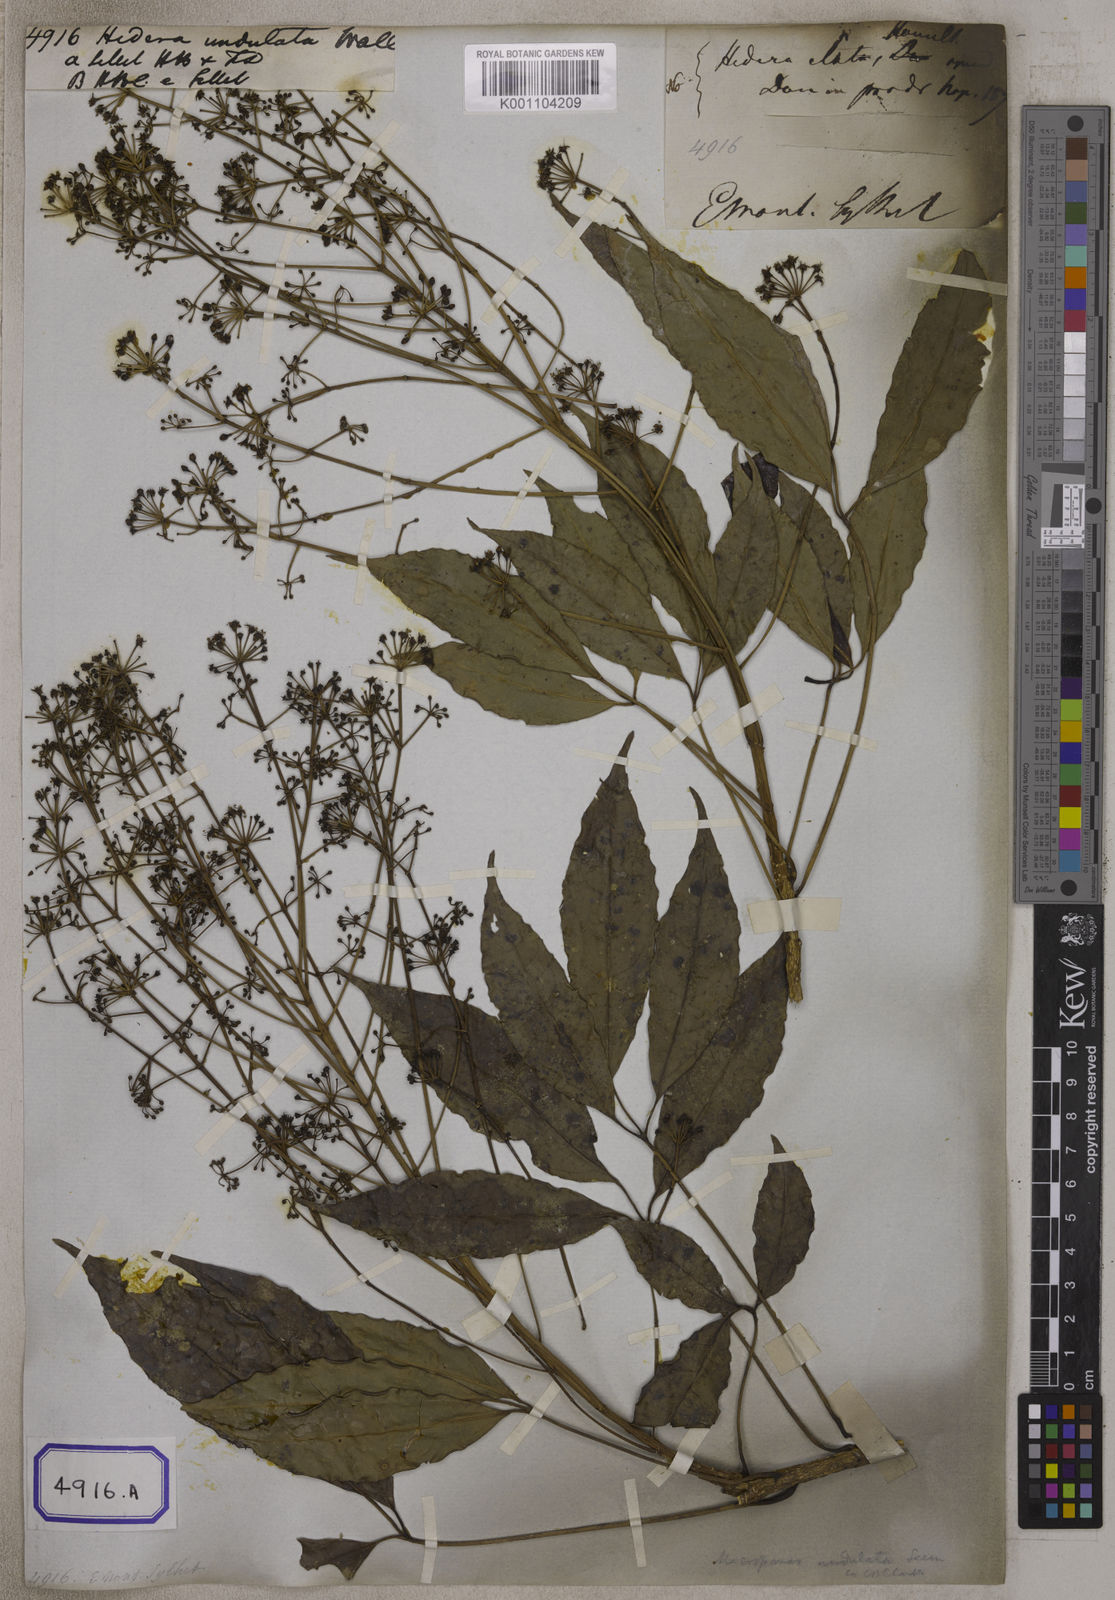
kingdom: Plantae
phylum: Tracheophyta
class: Magnoliopsida
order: Apiales
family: Araliaceae
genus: Hedera
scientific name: Hedera
